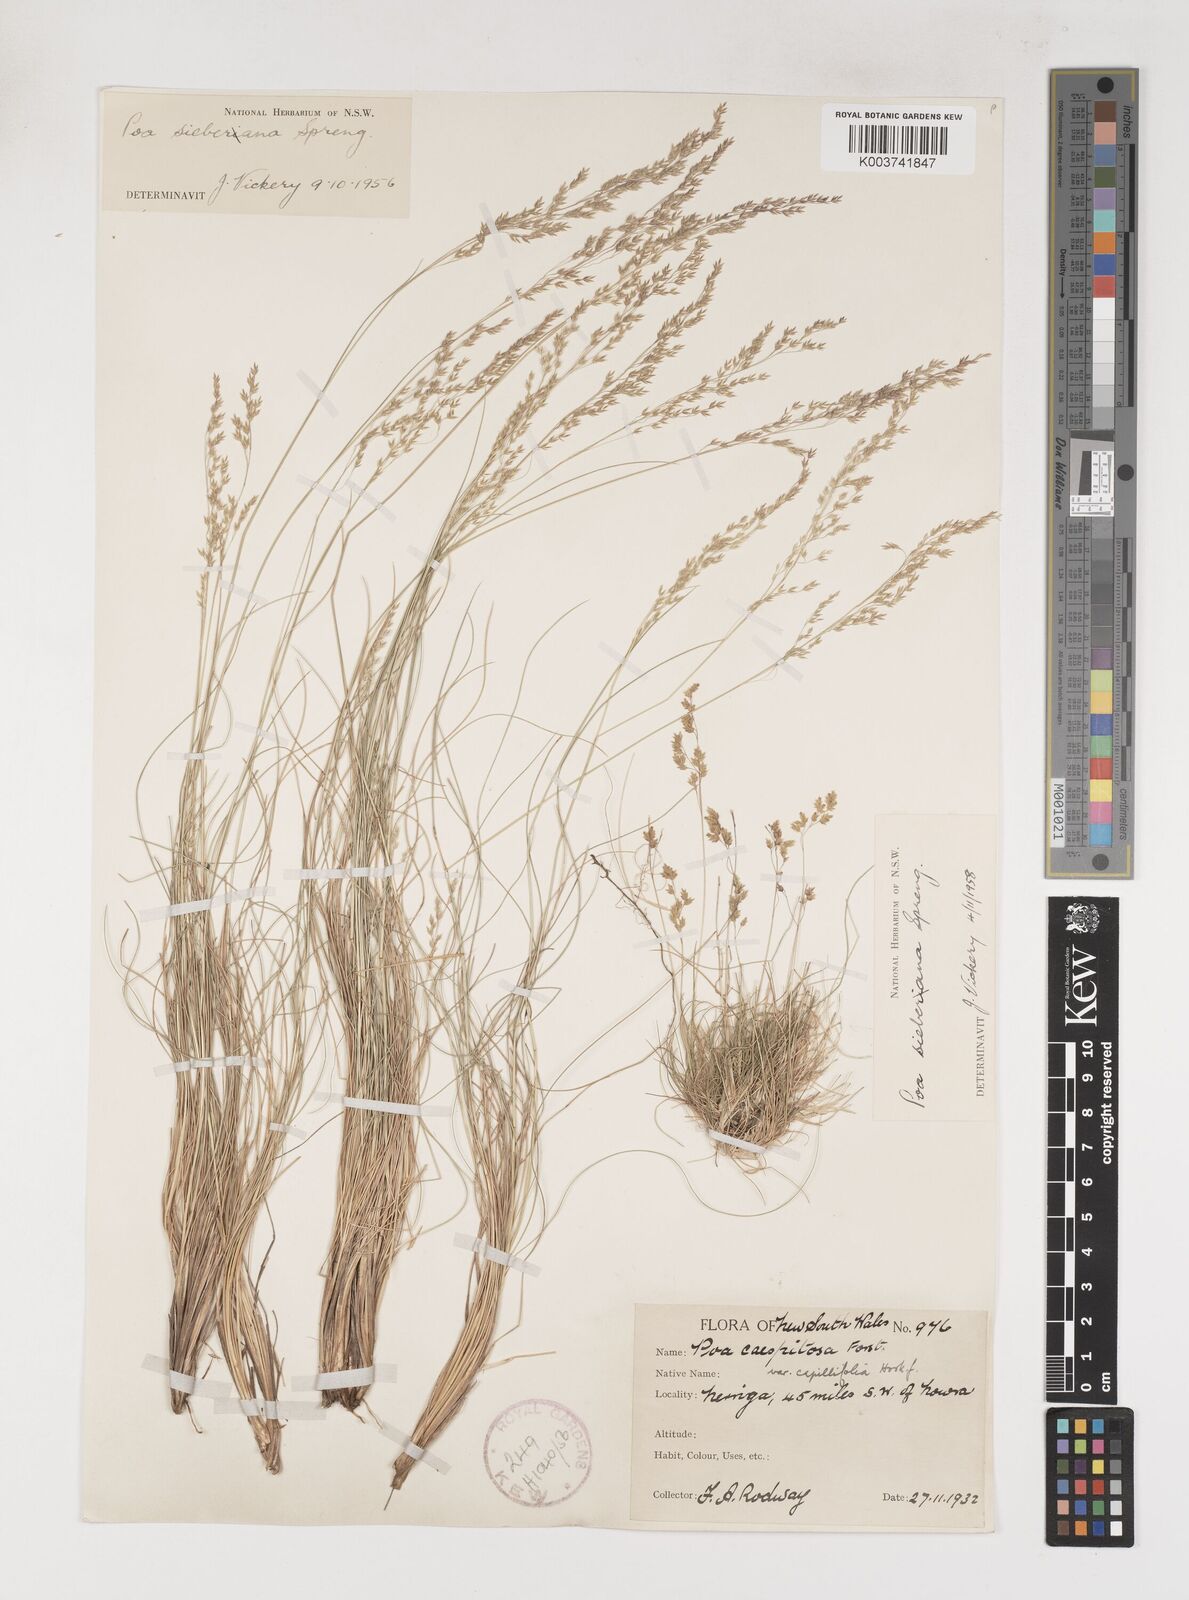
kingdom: Plantae
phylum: Tracheophyta
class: Liliopsida
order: Poales
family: Poaceae
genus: Poa
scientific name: Poa sieberiana
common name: Tussock poa
